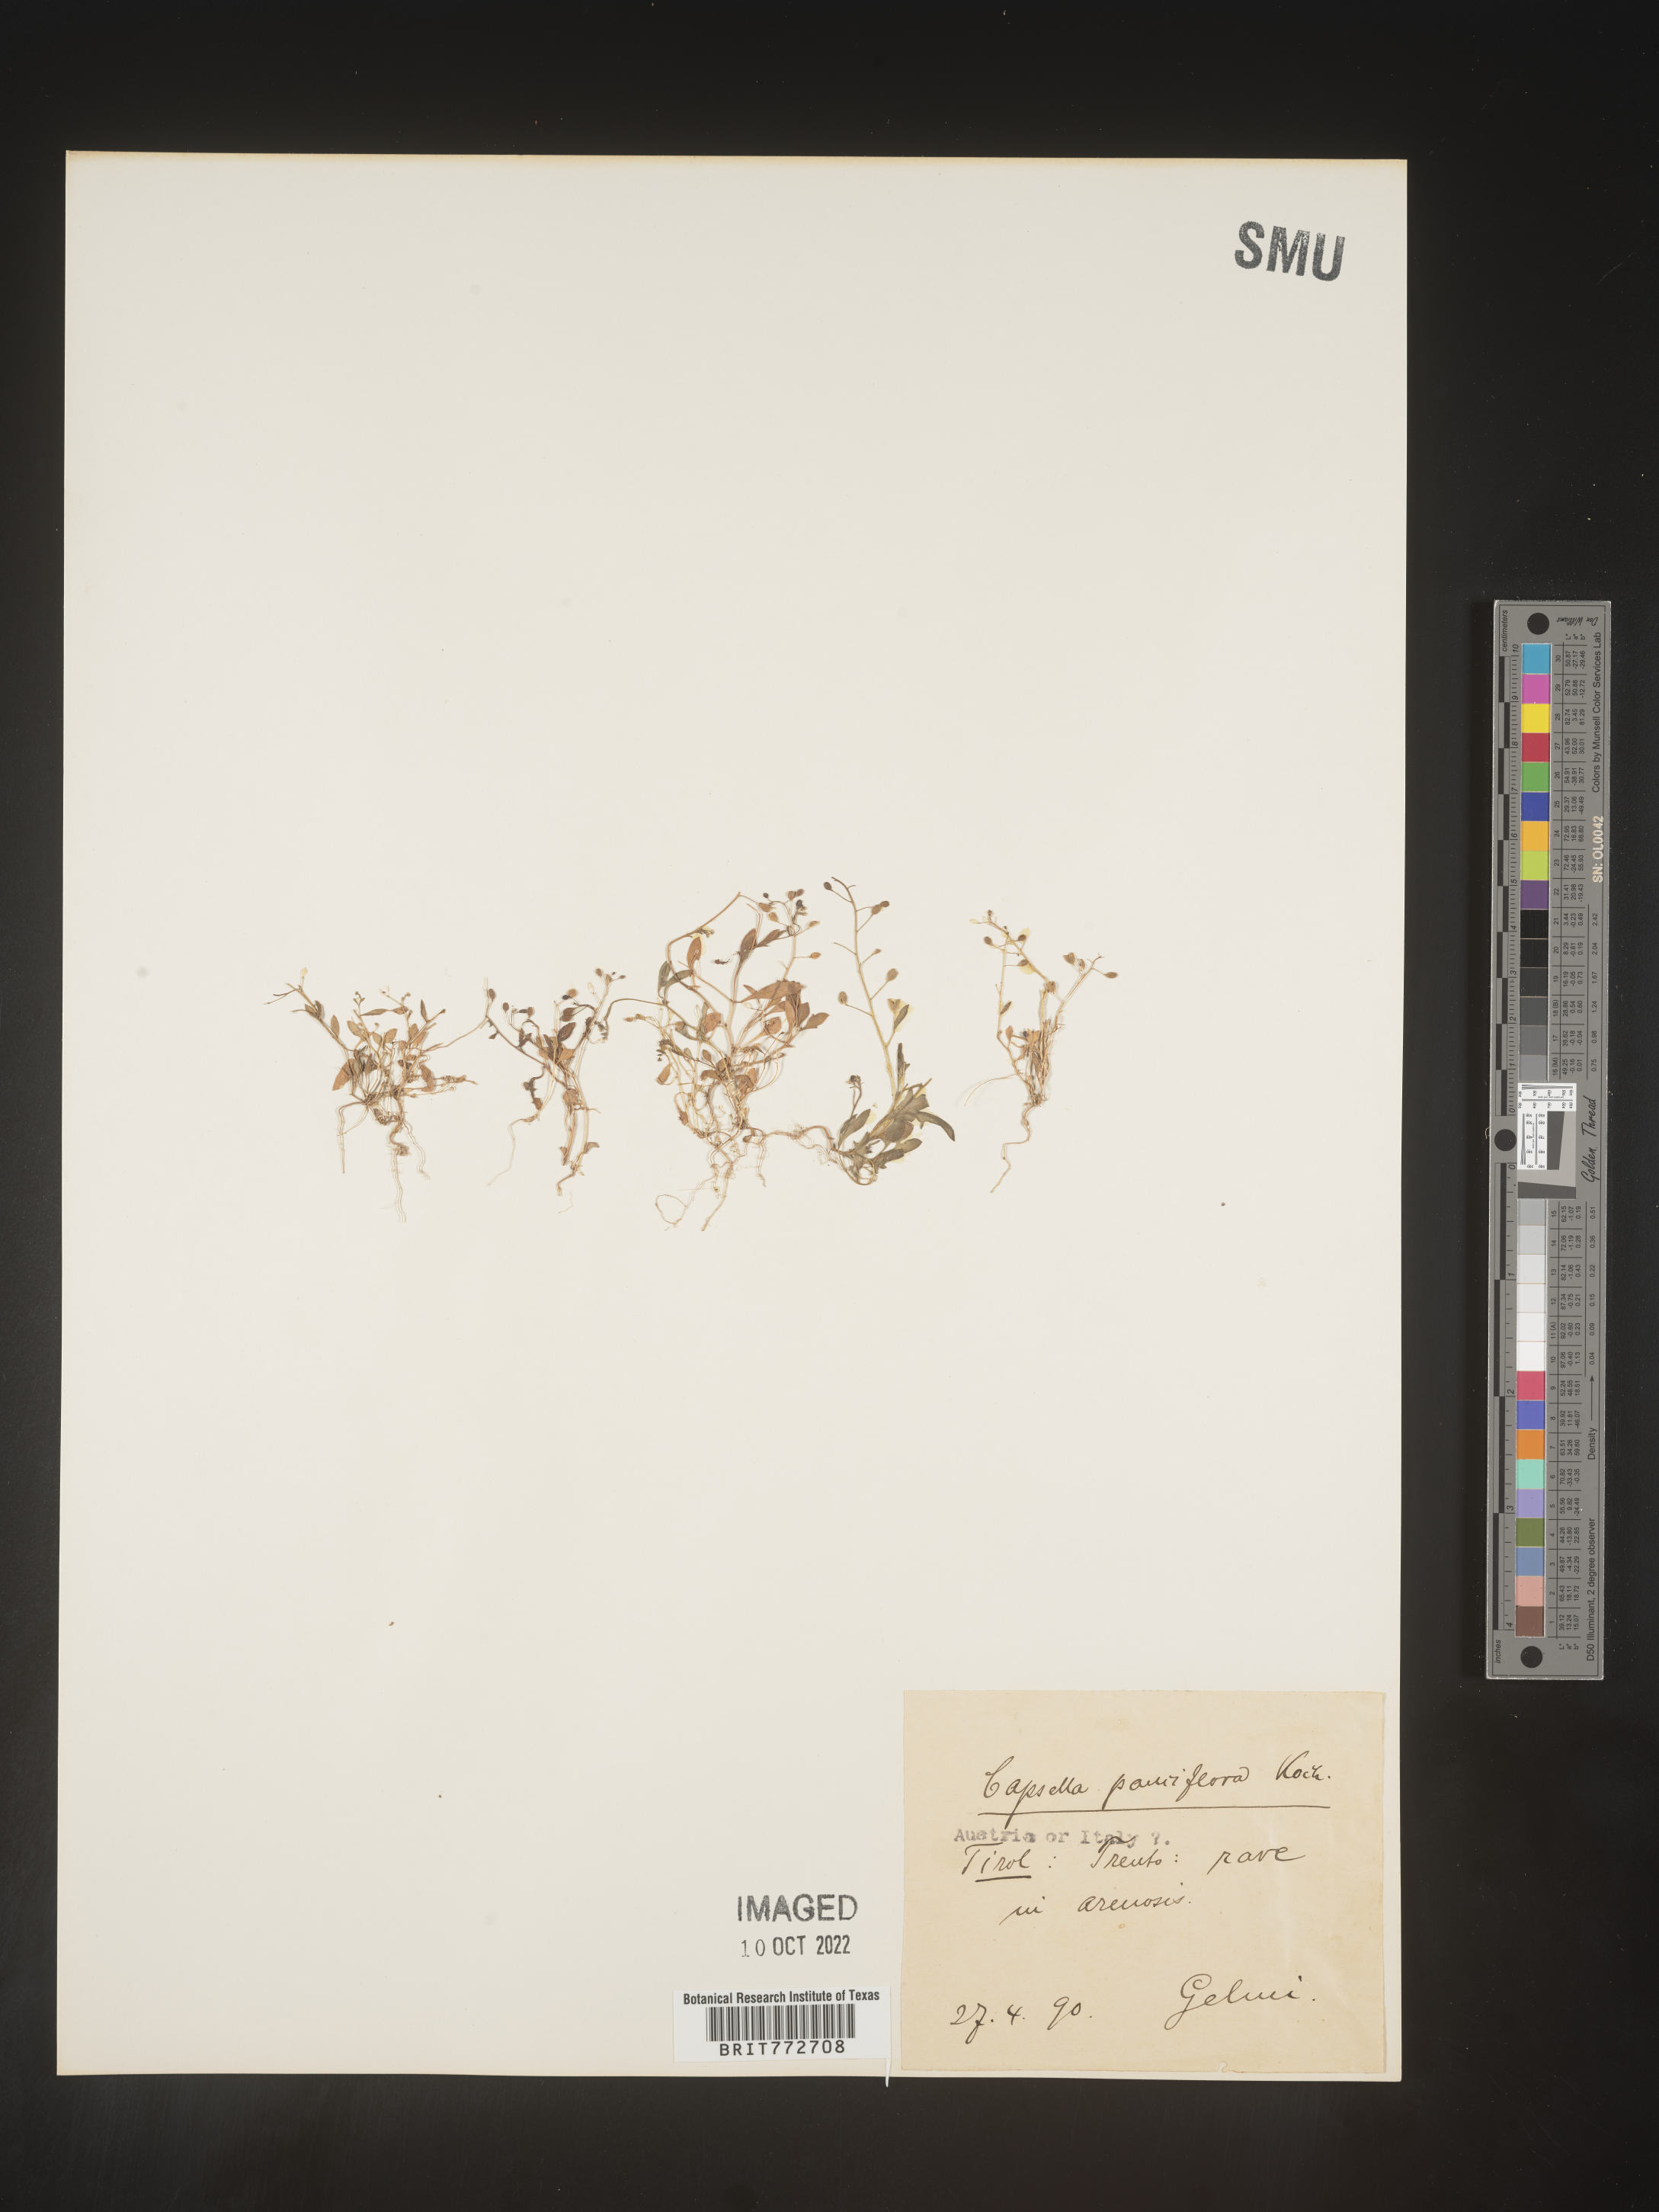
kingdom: Plantae
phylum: Tracheophyta
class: Magnoliopsida
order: Brassicales
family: Brassicaceae
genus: Capsella
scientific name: Capsella
